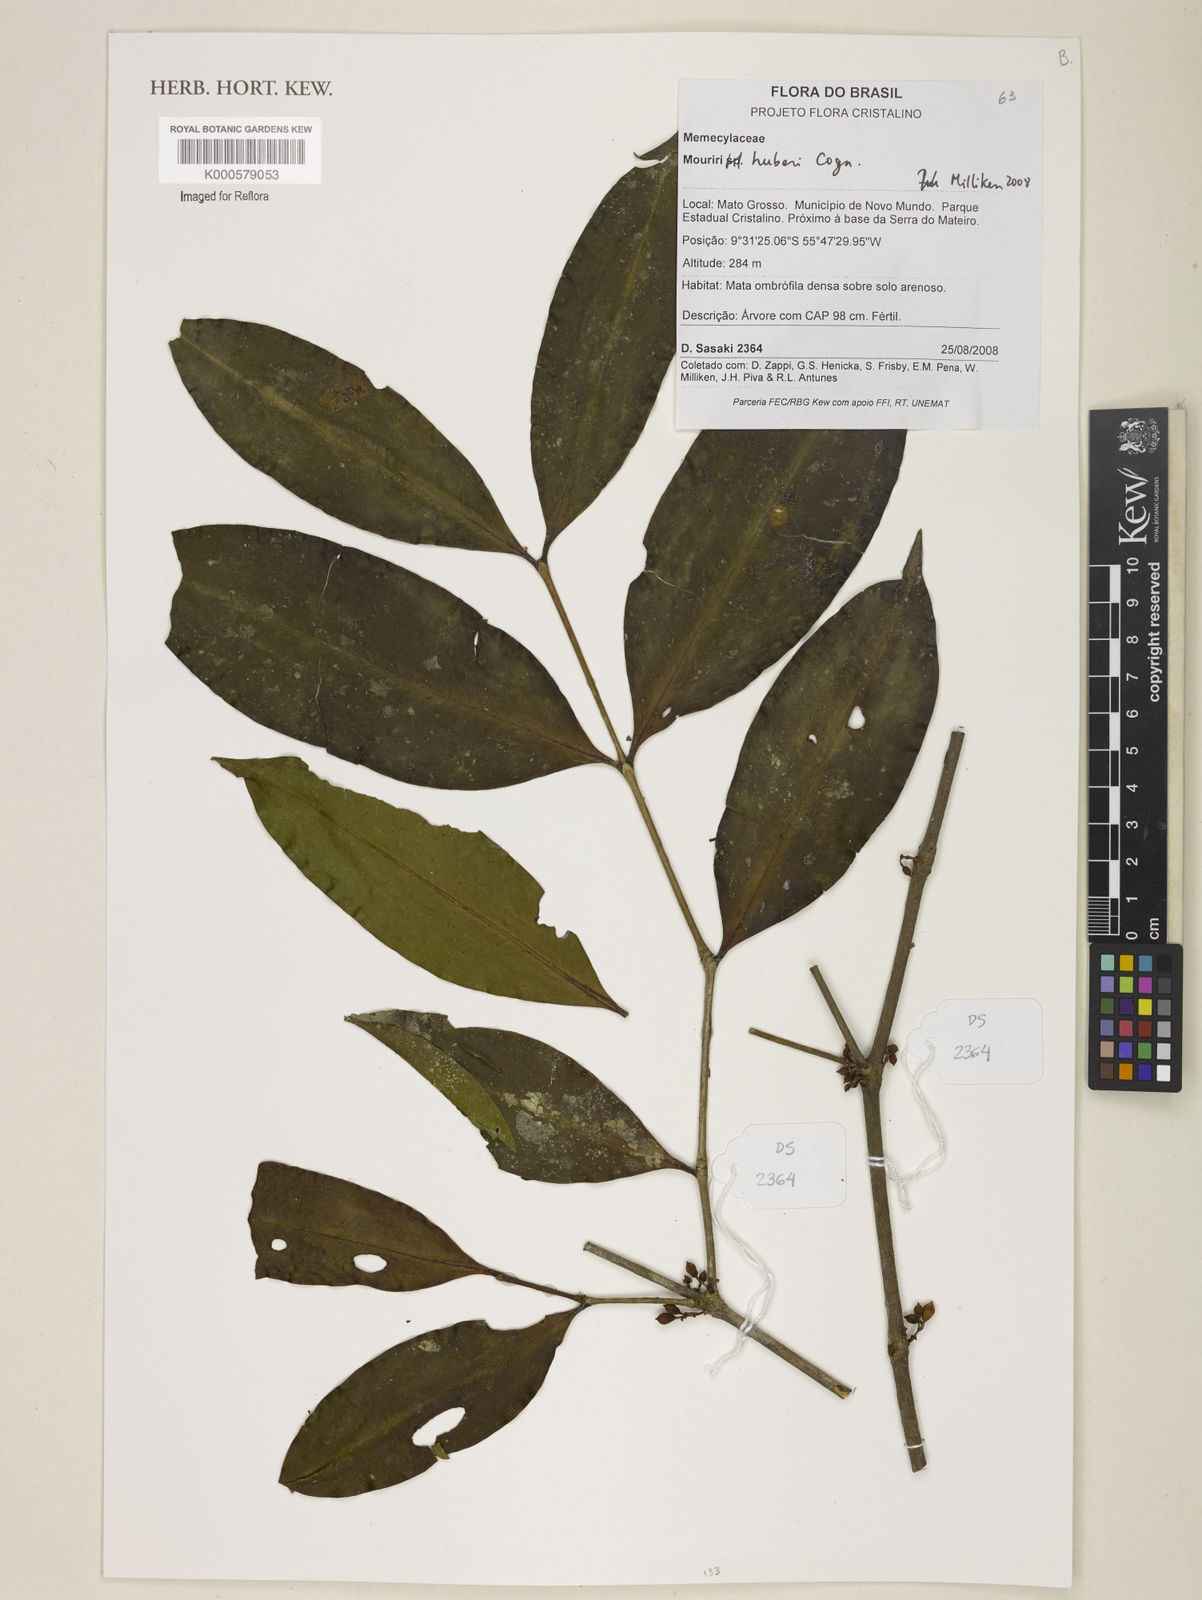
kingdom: Plantae
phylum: Tracheophyta
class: Magnoliopsida
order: Myrtales
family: Melastomataceae
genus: Mouriri
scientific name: Mouriri huberi
